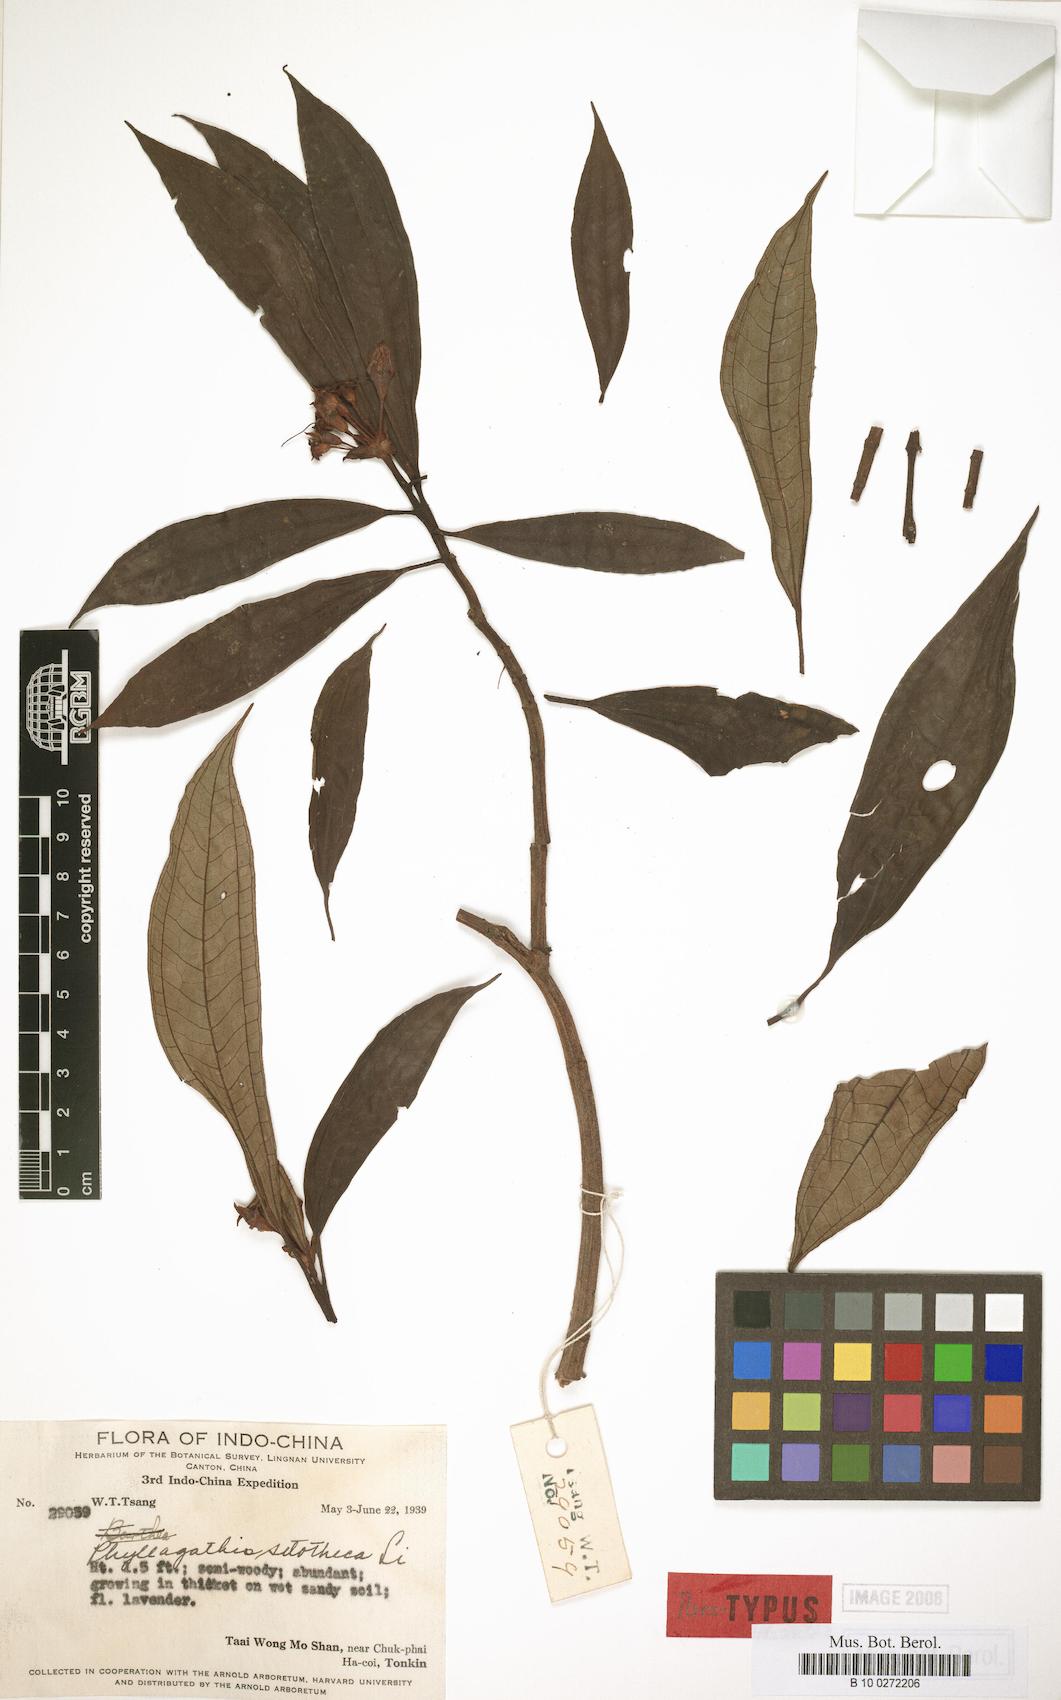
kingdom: Plantae
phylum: Tracheophyta
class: Magnoliopsida
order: Myrtales
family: Melastomataceae
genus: Phyllagathis
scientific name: Phyllagathis setotheca
